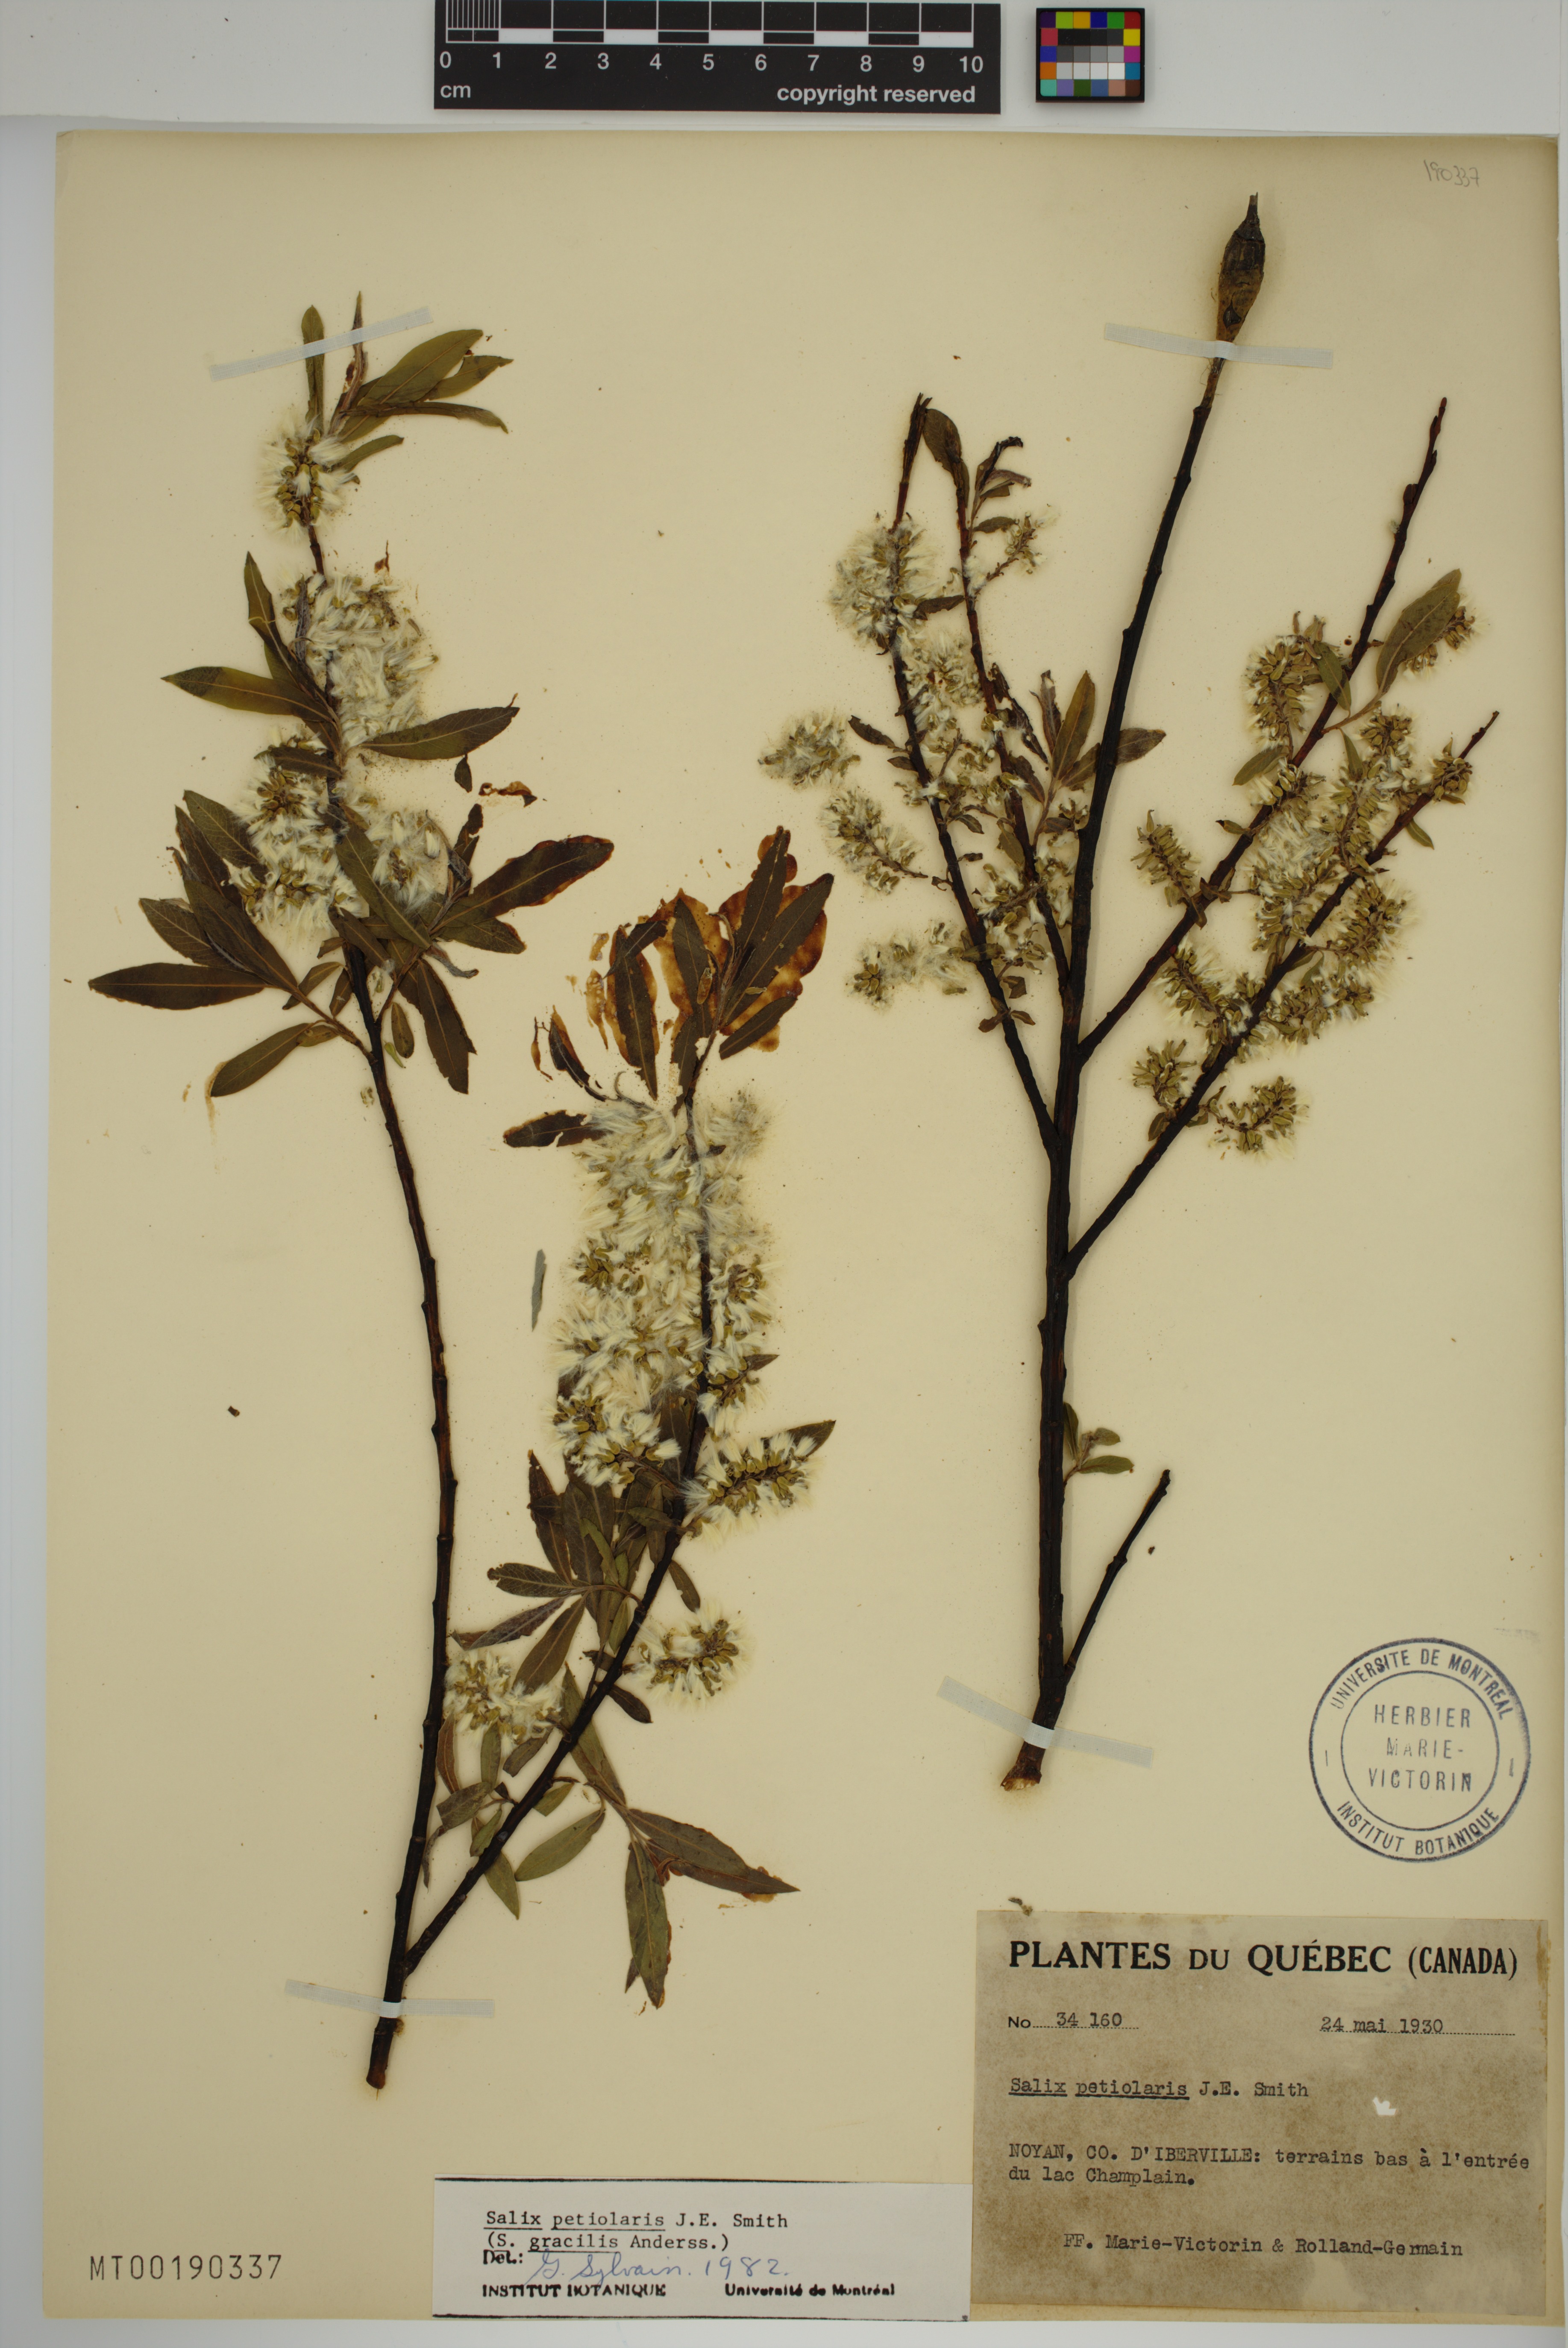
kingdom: Plantae
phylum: Tracheophyta
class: Magnoliopsida
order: Malpighiales
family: Salicaceae
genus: Salix
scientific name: Salix petiolaris
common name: Slender willow
